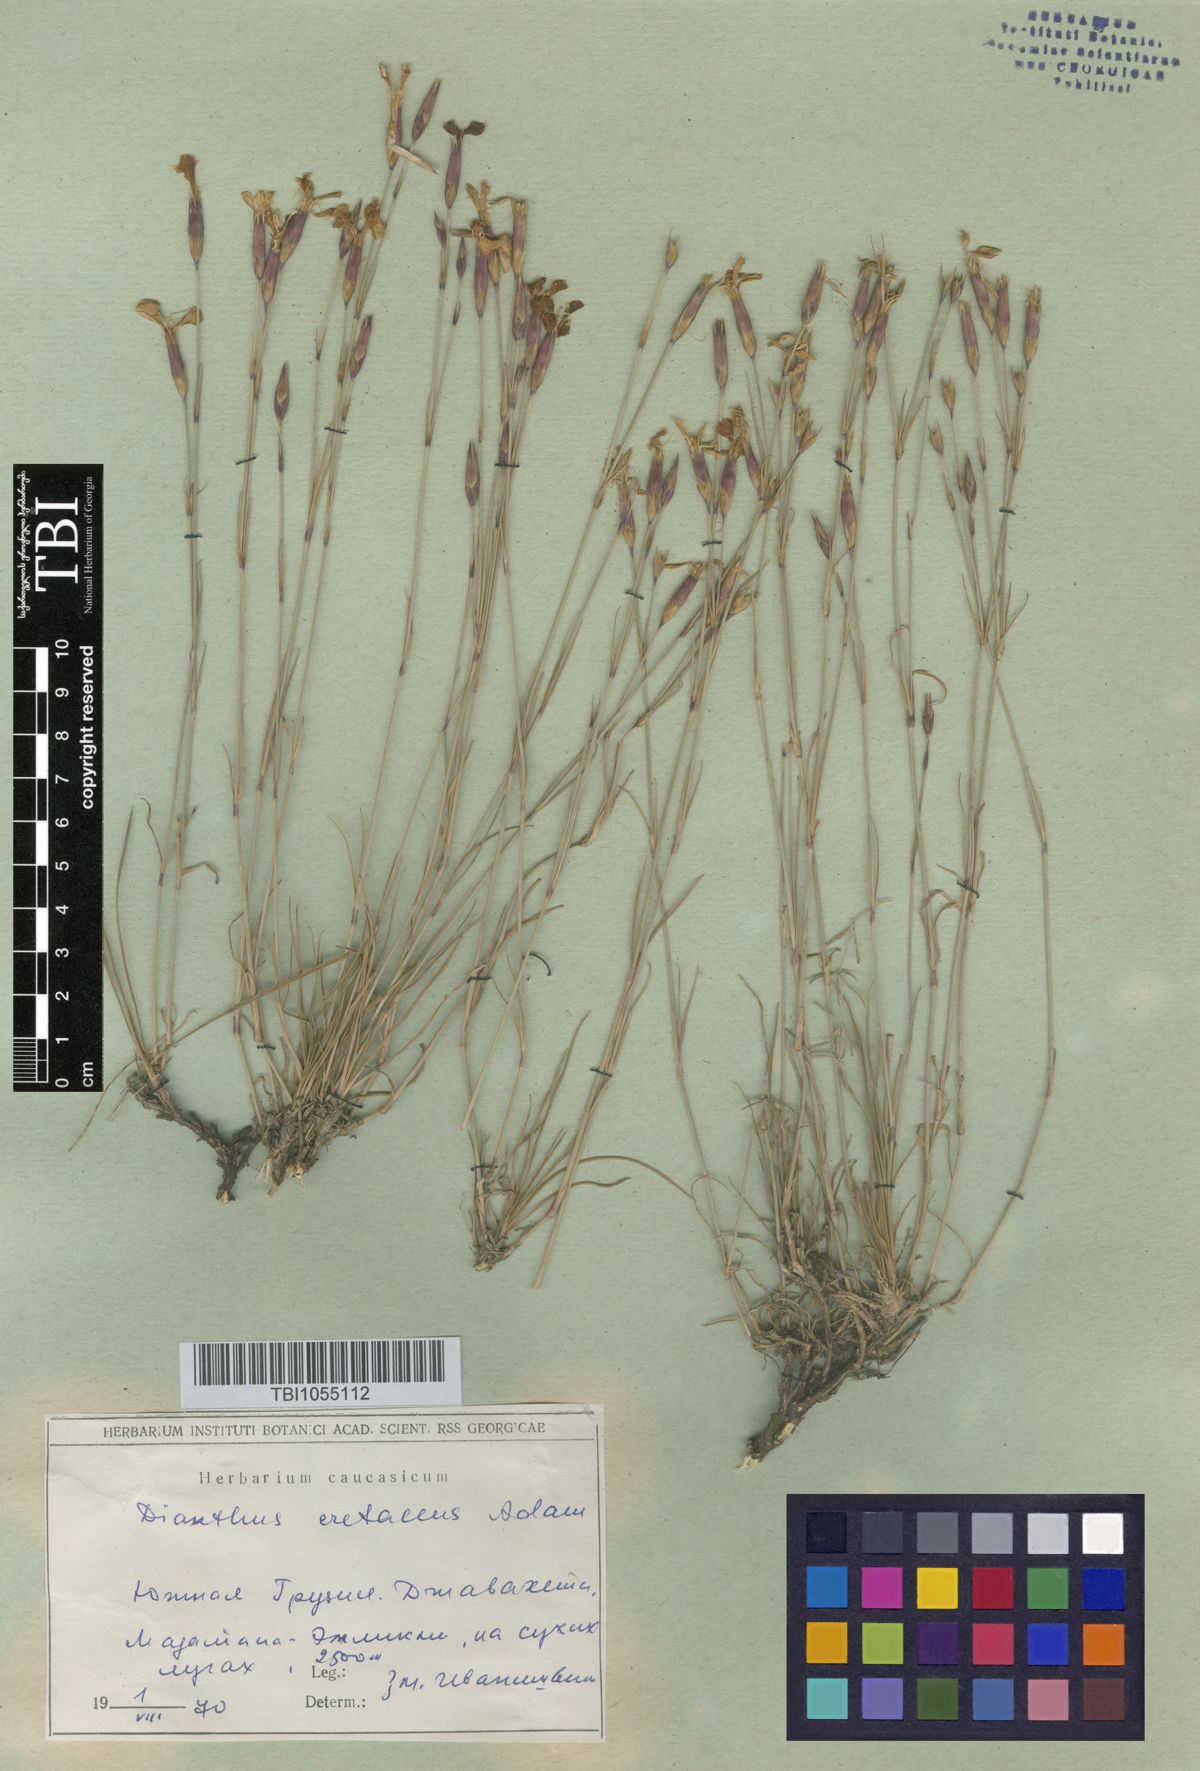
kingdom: Plantae
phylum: Tracheophyta
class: Magnoliopsida
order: Caryophyllales
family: Caryophyllaceae
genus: Dianthus
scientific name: Dianthus cretaceus
